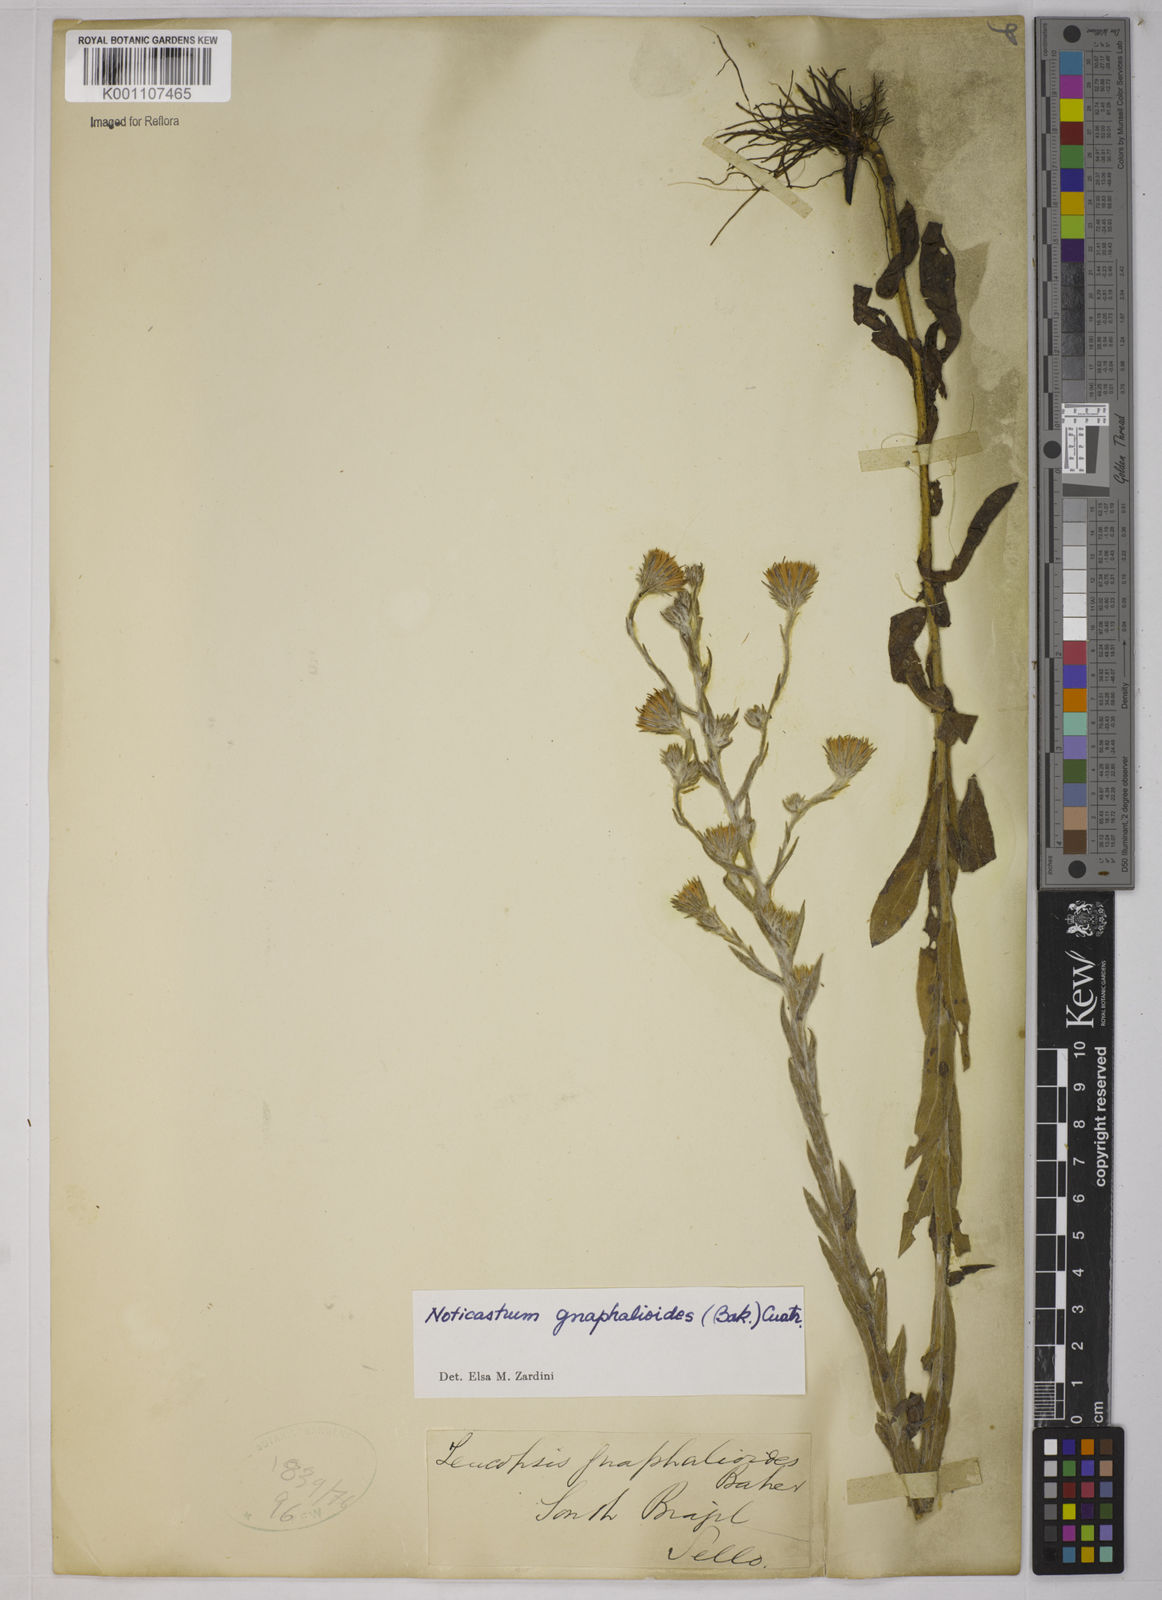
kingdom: Plantae
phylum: Tracheophyta
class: Magnoliopsida
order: Asterales
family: Asteraceae
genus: Noticastrum
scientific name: Noticastrum gnaphalioides
